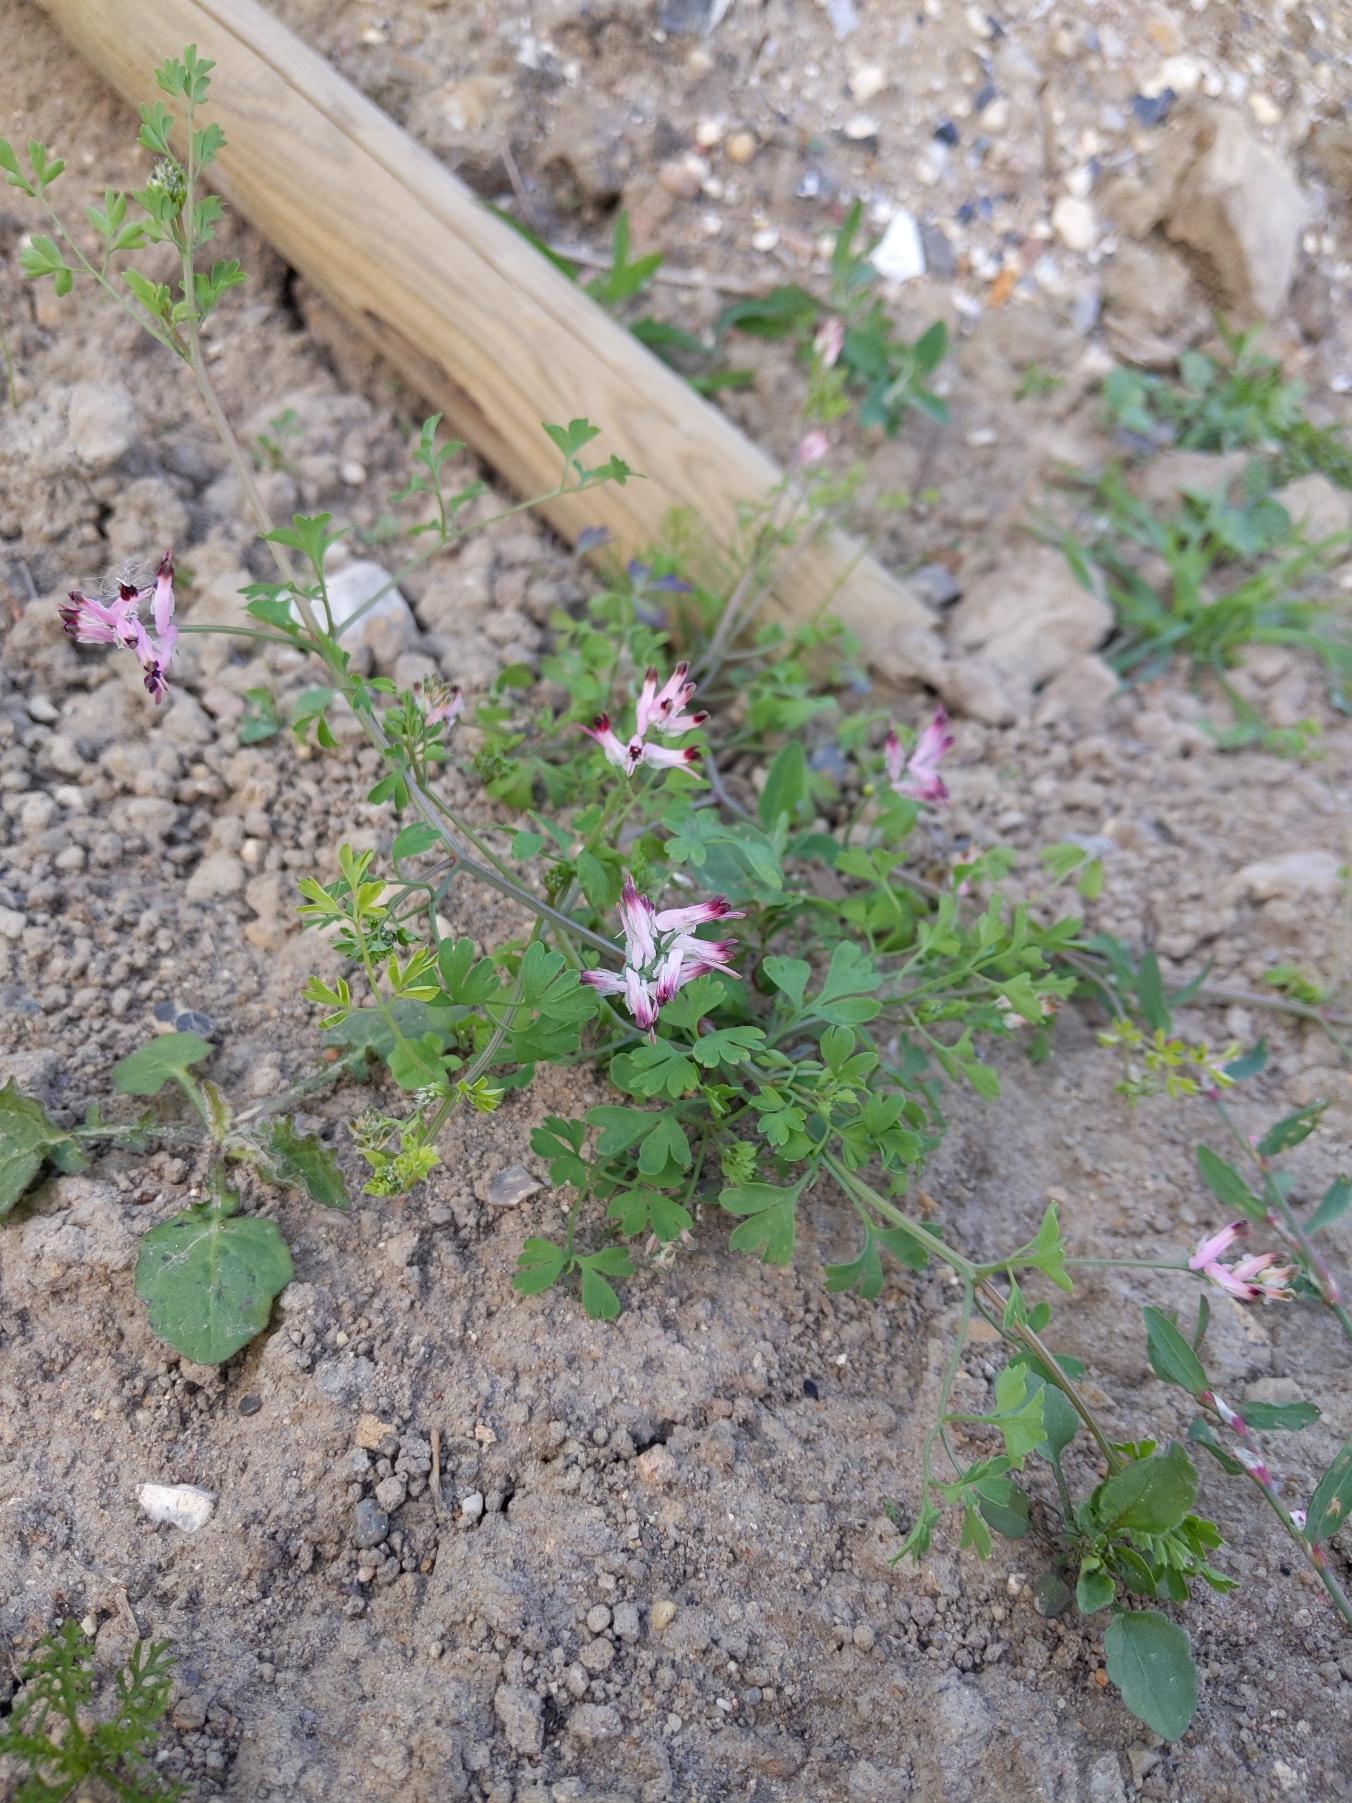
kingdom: Plantae
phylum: Tracheophyta
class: Magnoliopsida
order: Ranunculales
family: Papaveraceae
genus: Fumaria
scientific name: Fumaria muralis
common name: Mur-jordrøg
